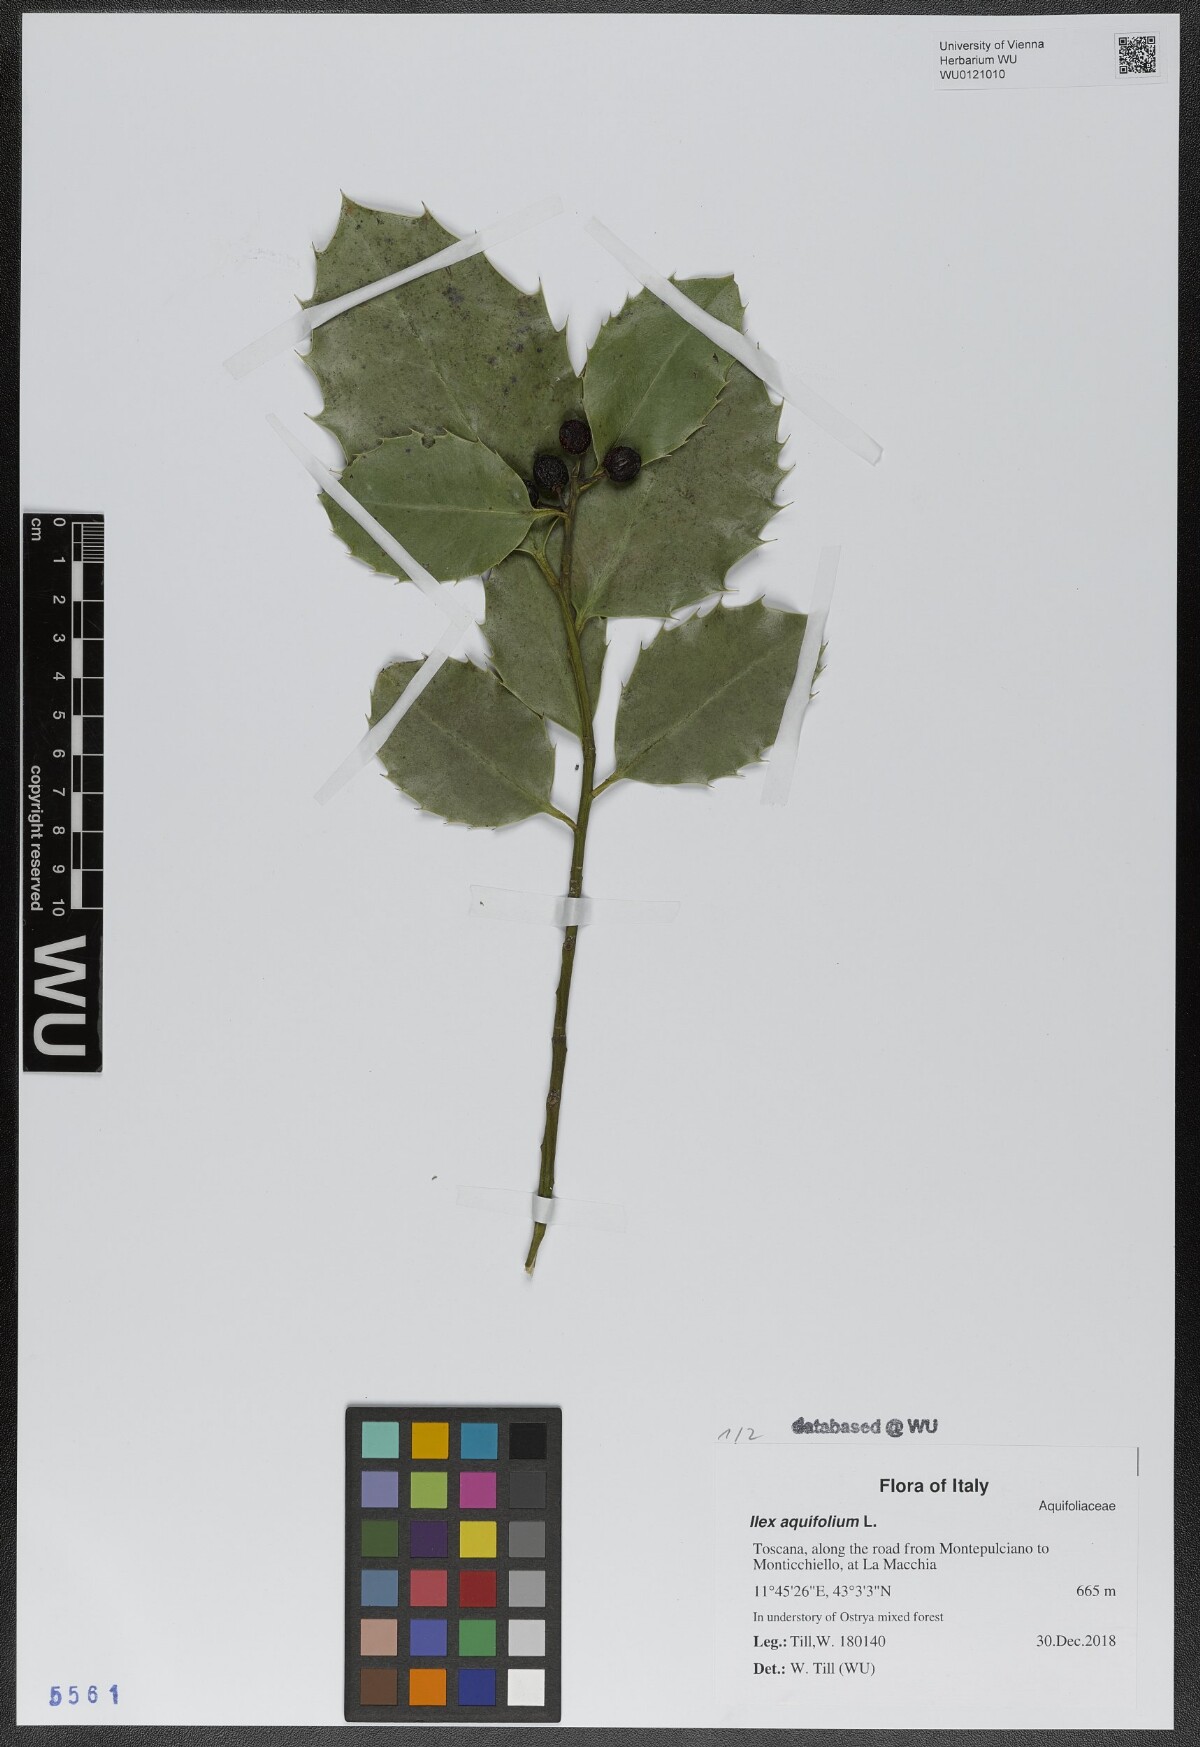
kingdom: Plantae
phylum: Tracheophyta
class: Magnoliopsida
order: Aquifoliales
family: Aquifoliaceae
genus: Ilex
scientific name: Ilex aquifolium
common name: English holly
